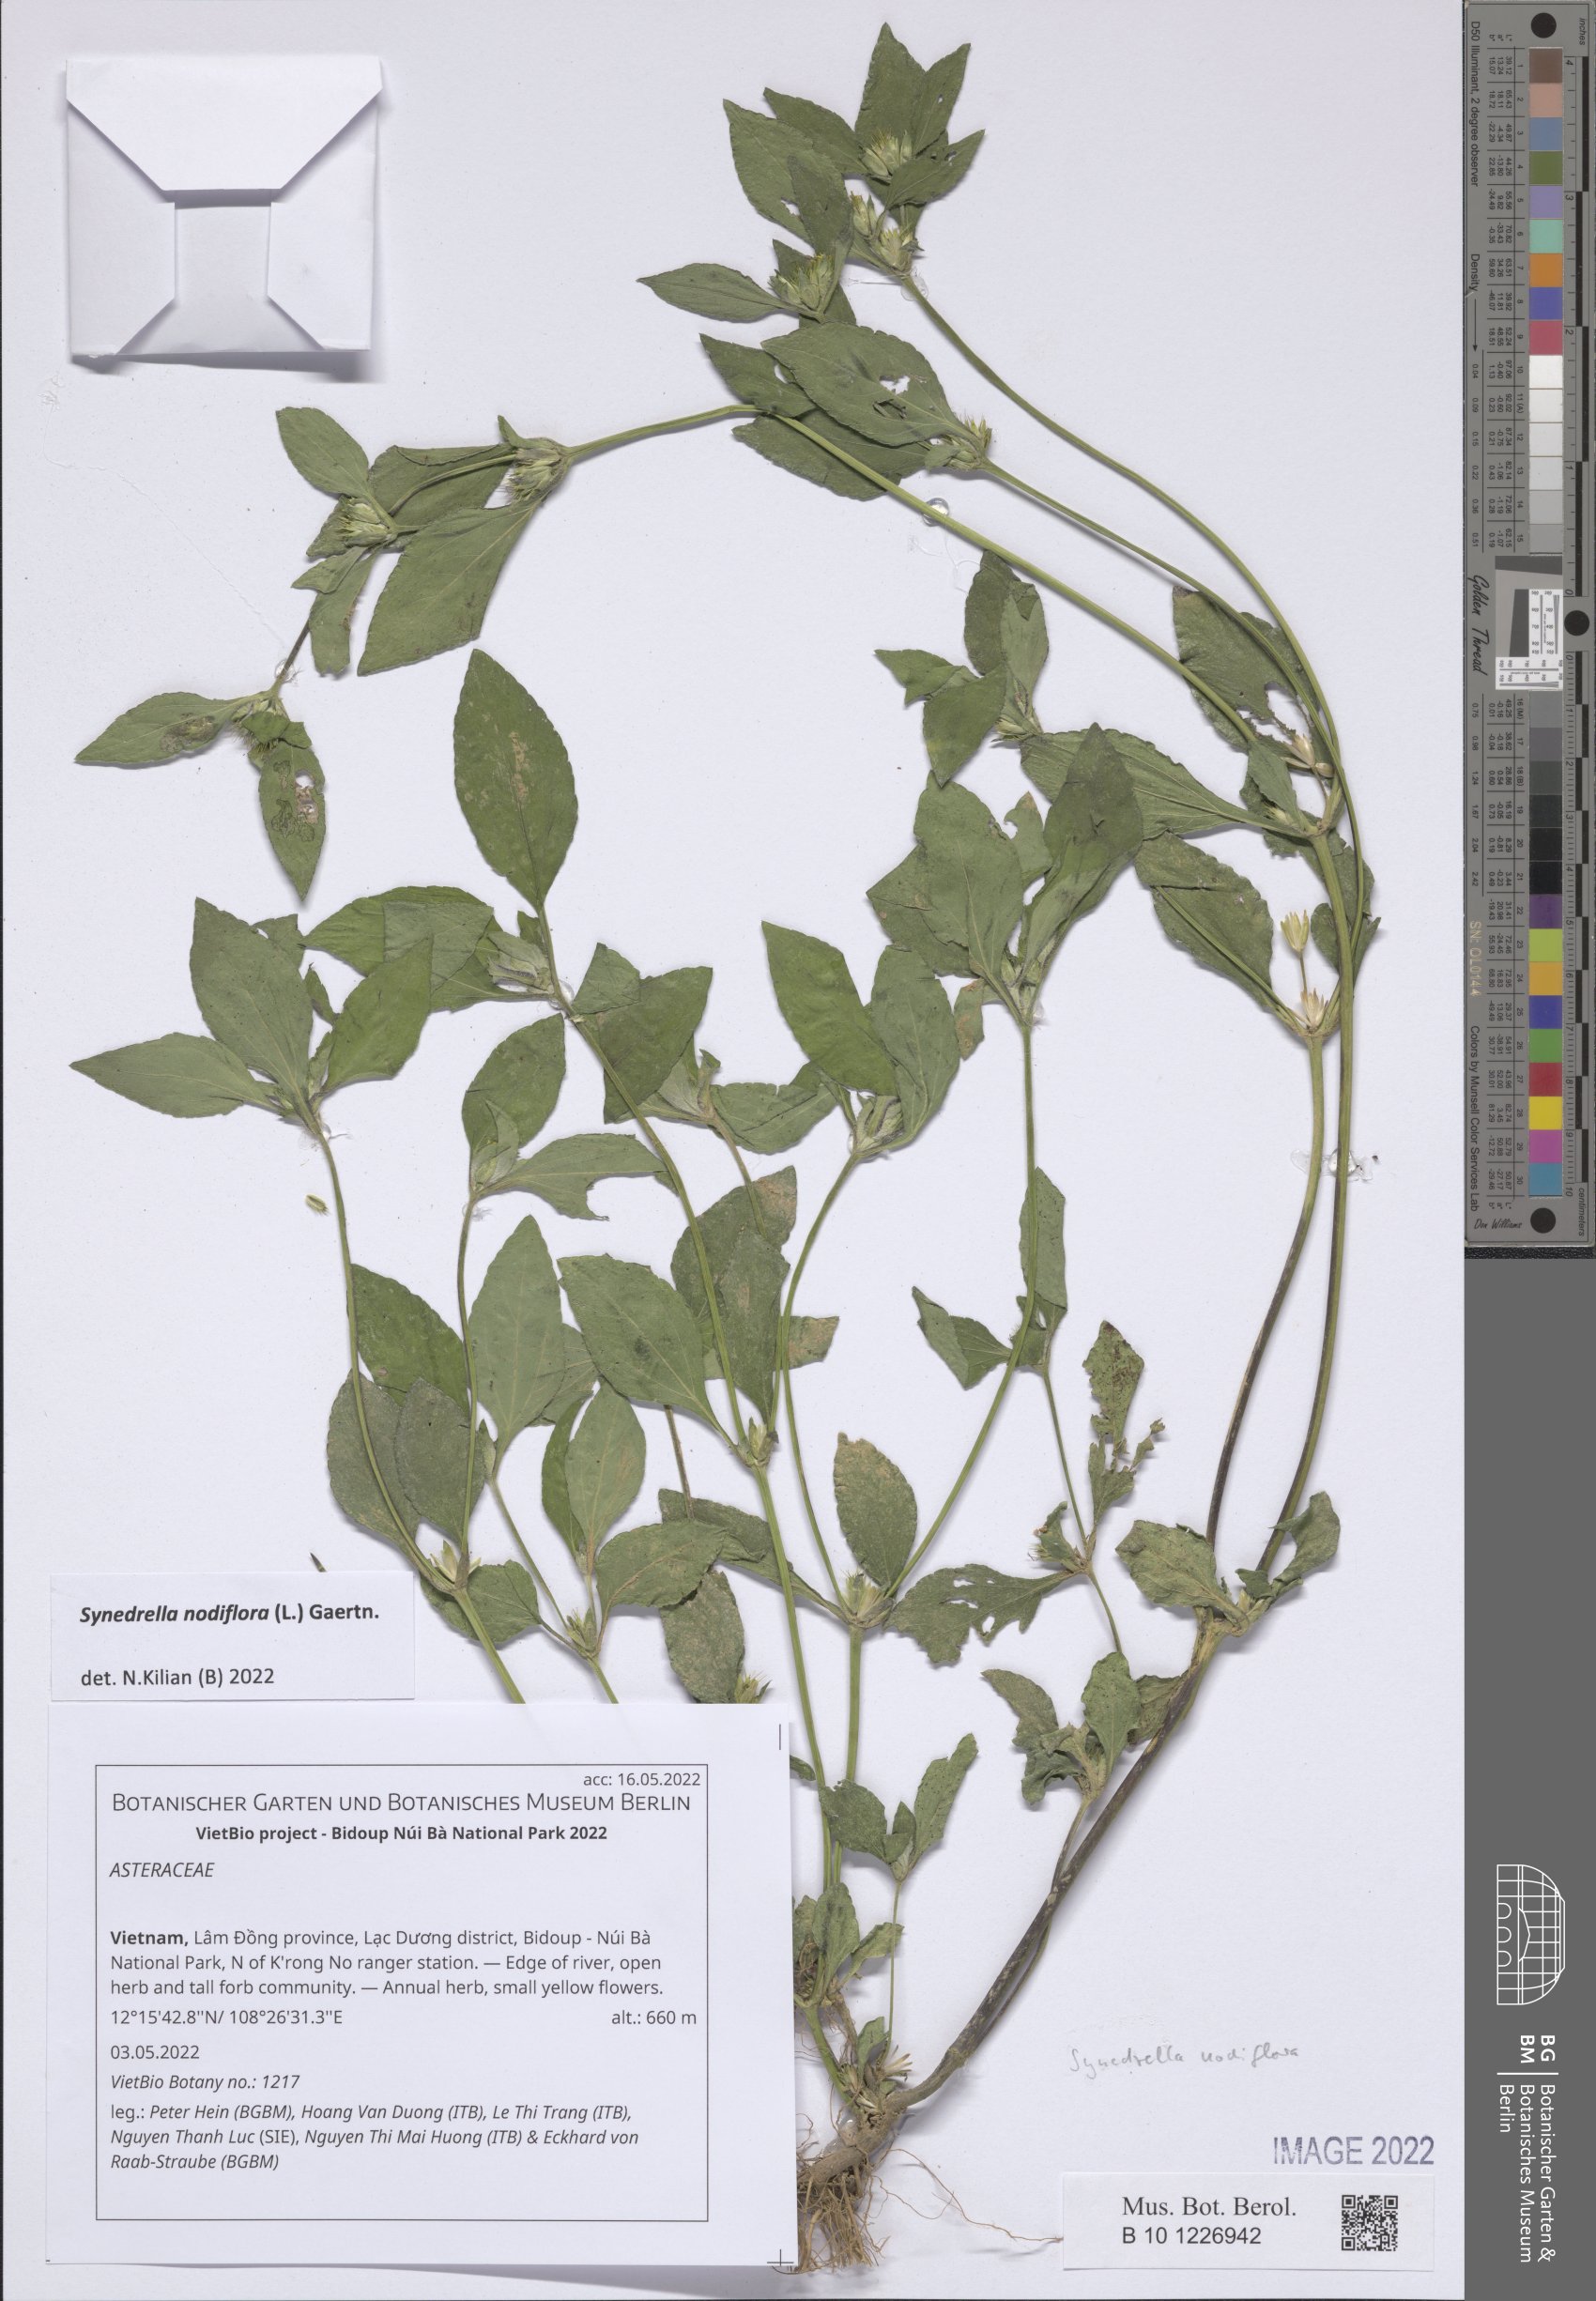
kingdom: Plantae
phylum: Tracheophyta
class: Magnoliopsida
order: Asterales
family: Asteraceae
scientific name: Asteraceae
